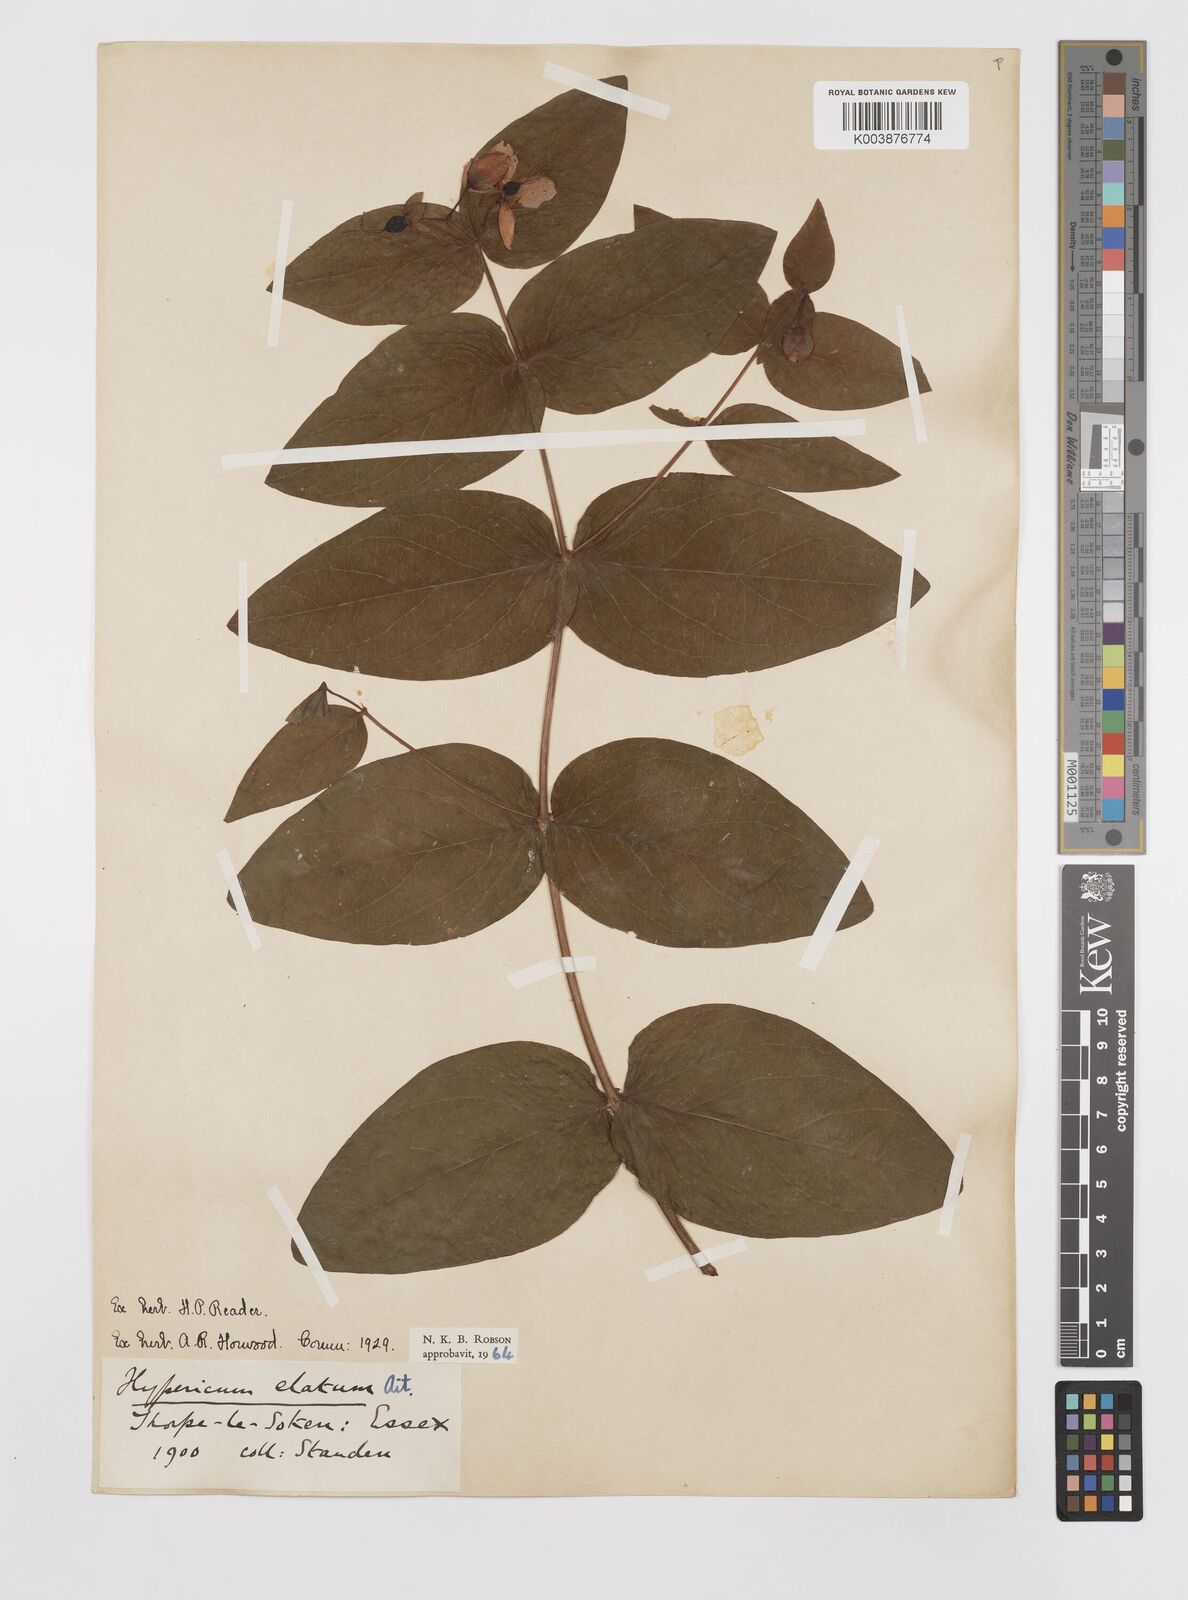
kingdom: Plantae
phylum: Tracheophyta
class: Magnoliopsida
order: Malpighiales
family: Hypericaceae
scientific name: Hypericaceae
